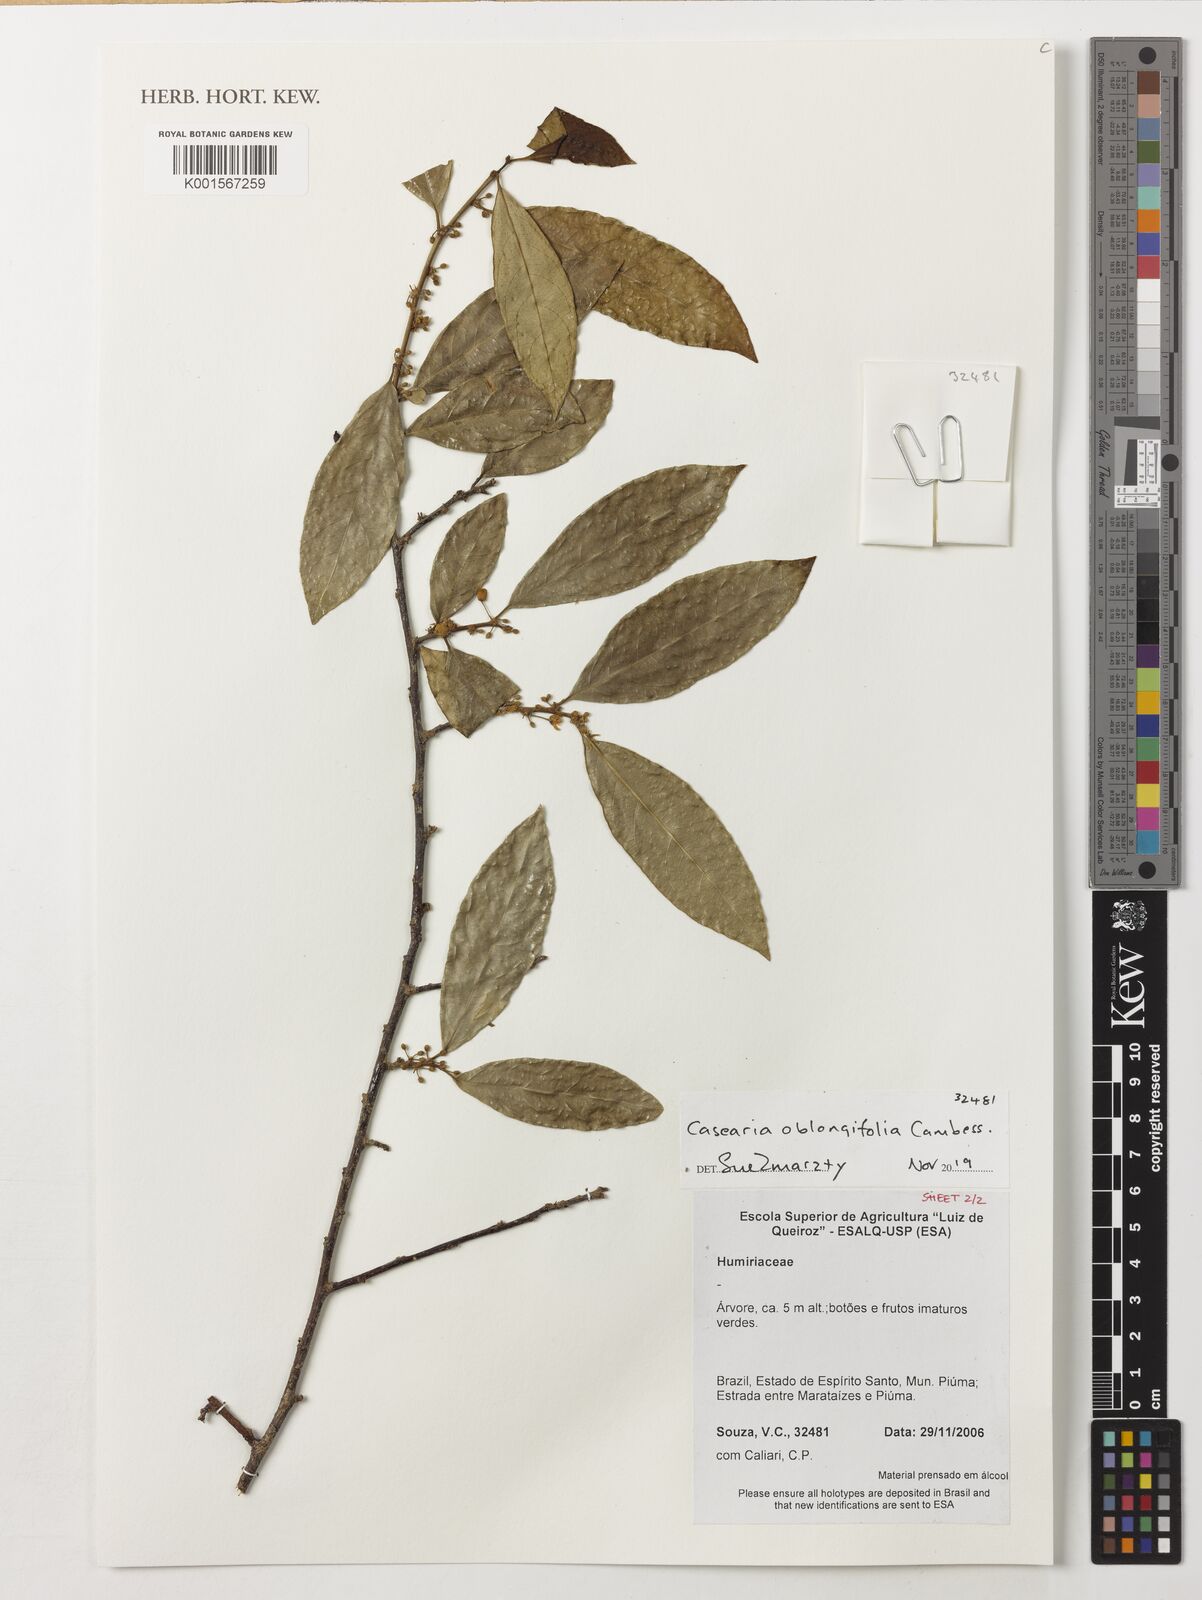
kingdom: Plantae
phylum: Tracheophyta
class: Magnoliopsida
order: Malpighiales
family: Salicaceae
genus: Casearia
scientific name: Casearia oblongifolia
